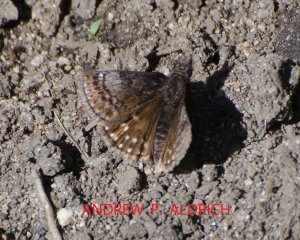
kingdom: Animalia
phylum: Arthropoda
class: Insecta
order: Lepidoptera
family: Hesperiidae
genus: Erynnis
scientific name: Erynnis icelus
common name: Dreamy Duskywing
